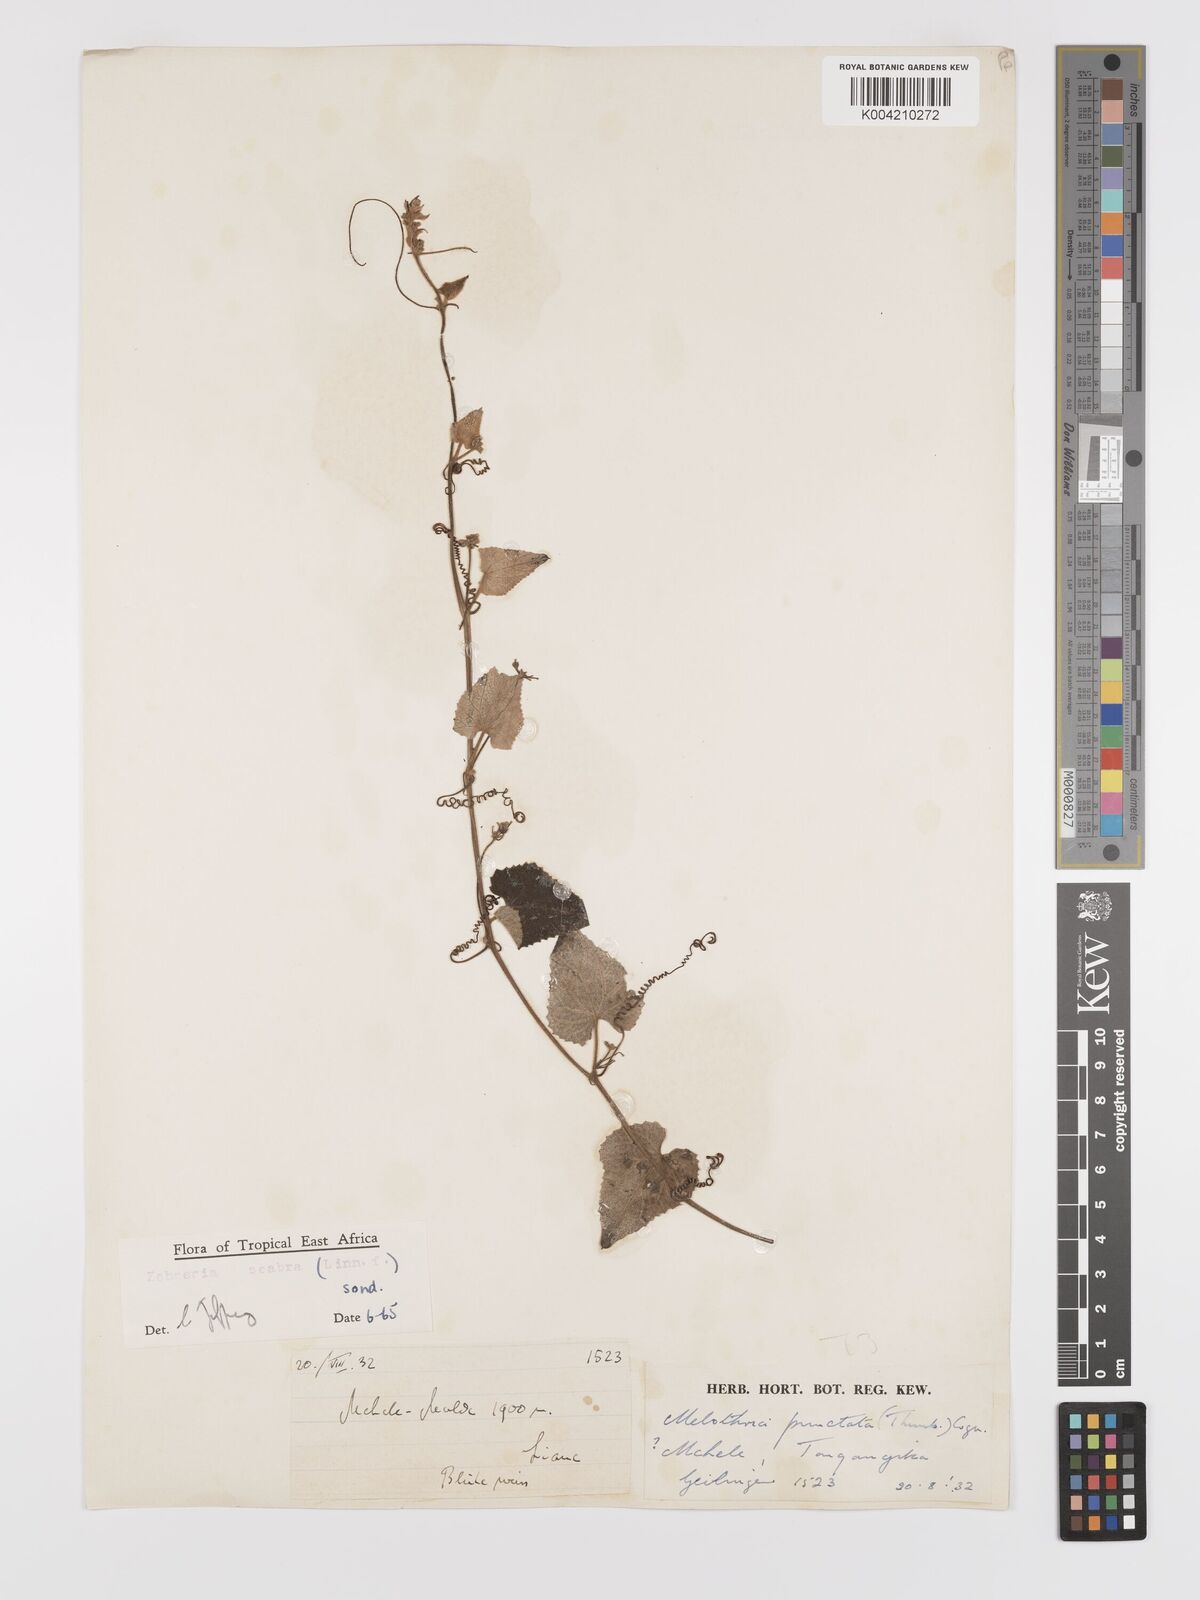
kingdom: Plantae
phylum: Tracheophyta
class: Magnoliopsida
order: Cucurbitales
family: Cucurbitaceae
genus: Zehneria
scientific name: Zehneria scabra
